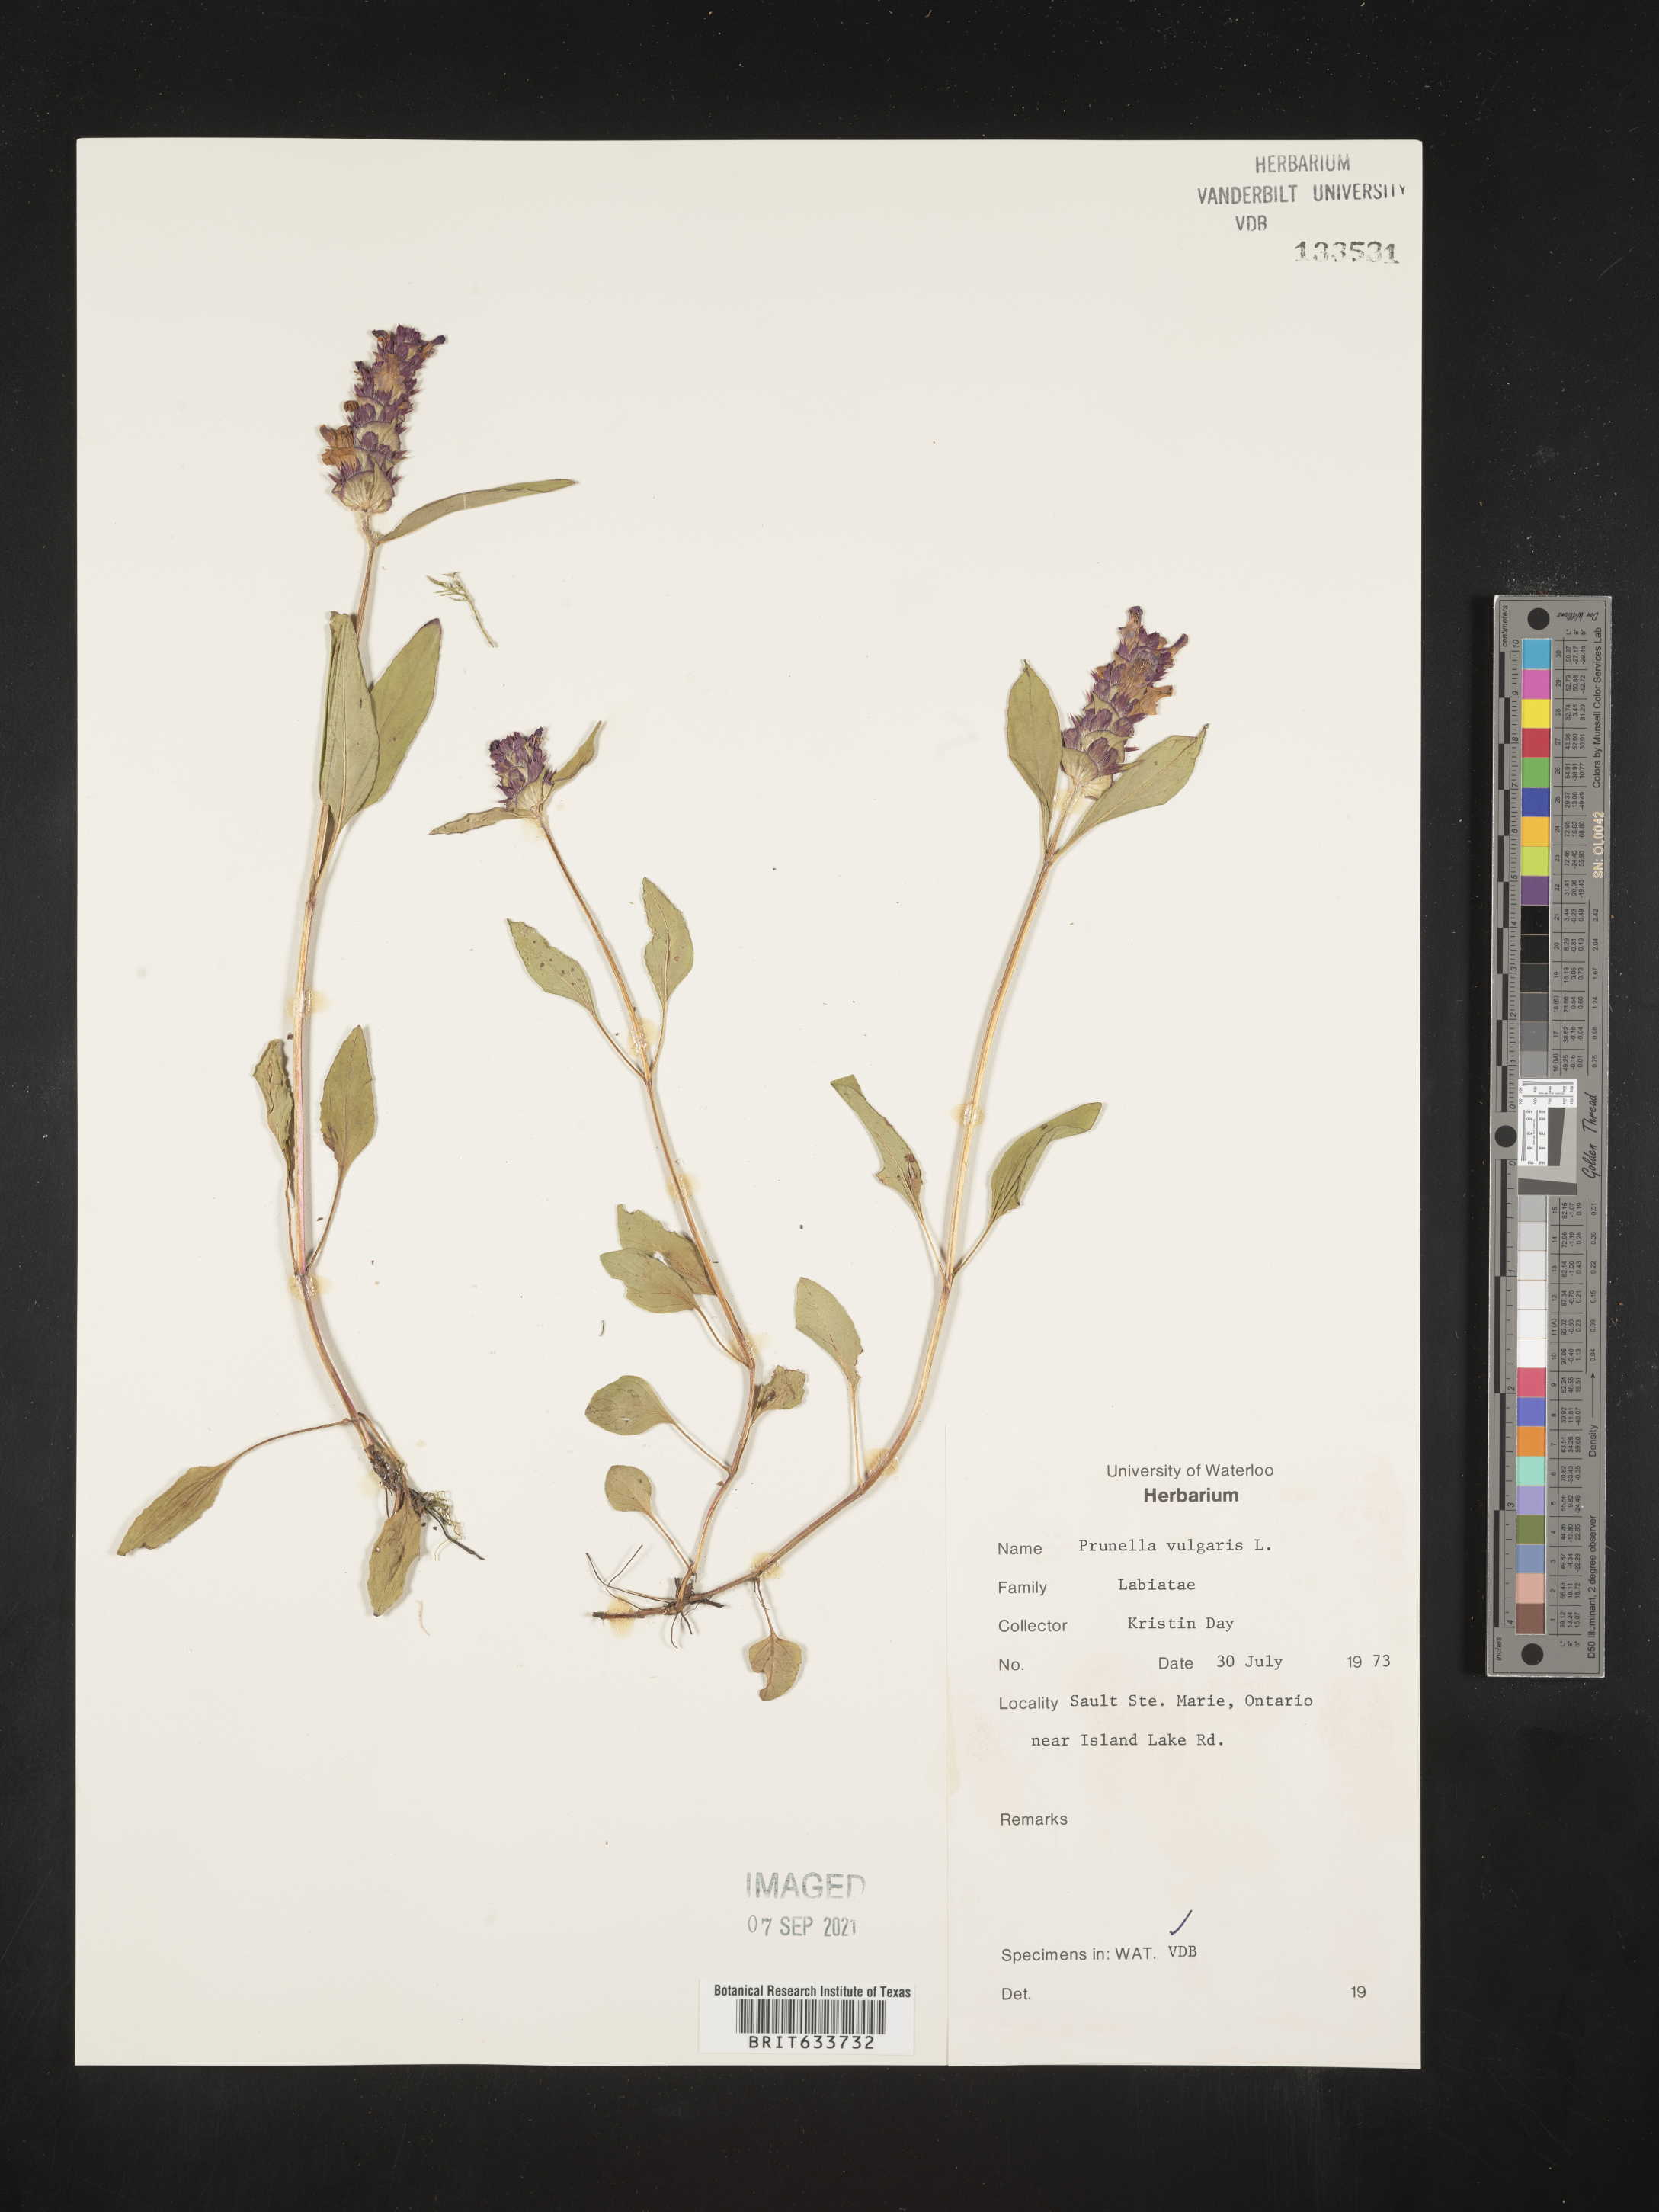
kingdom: Plantae
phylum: Tracheophyta
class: Magnoliopsida
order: Lamiales
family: Lamiaceae
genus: Prunella
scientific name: Prunella
